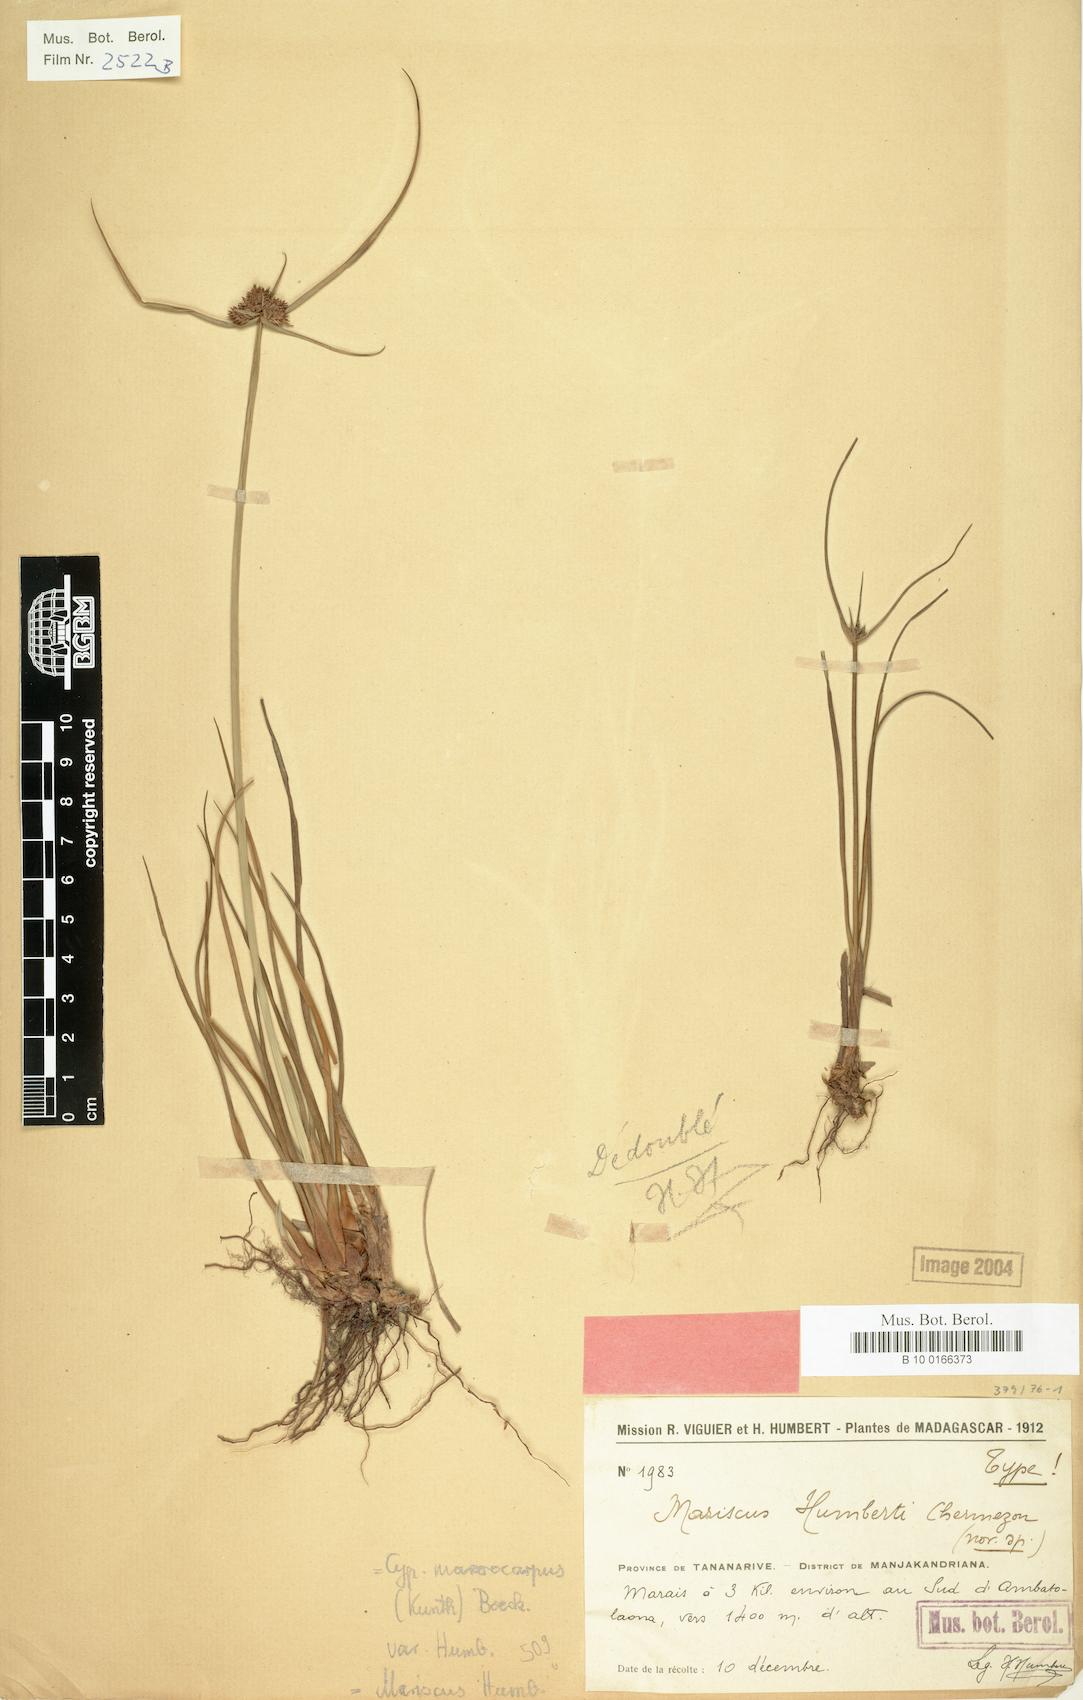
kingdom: Plantae
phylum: Tracheophyta
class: Liliopsida
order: Poales
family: Cyperaceae
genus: Cyperus
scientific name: Cyperus cyperoides
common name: Pacific island flat sedge
